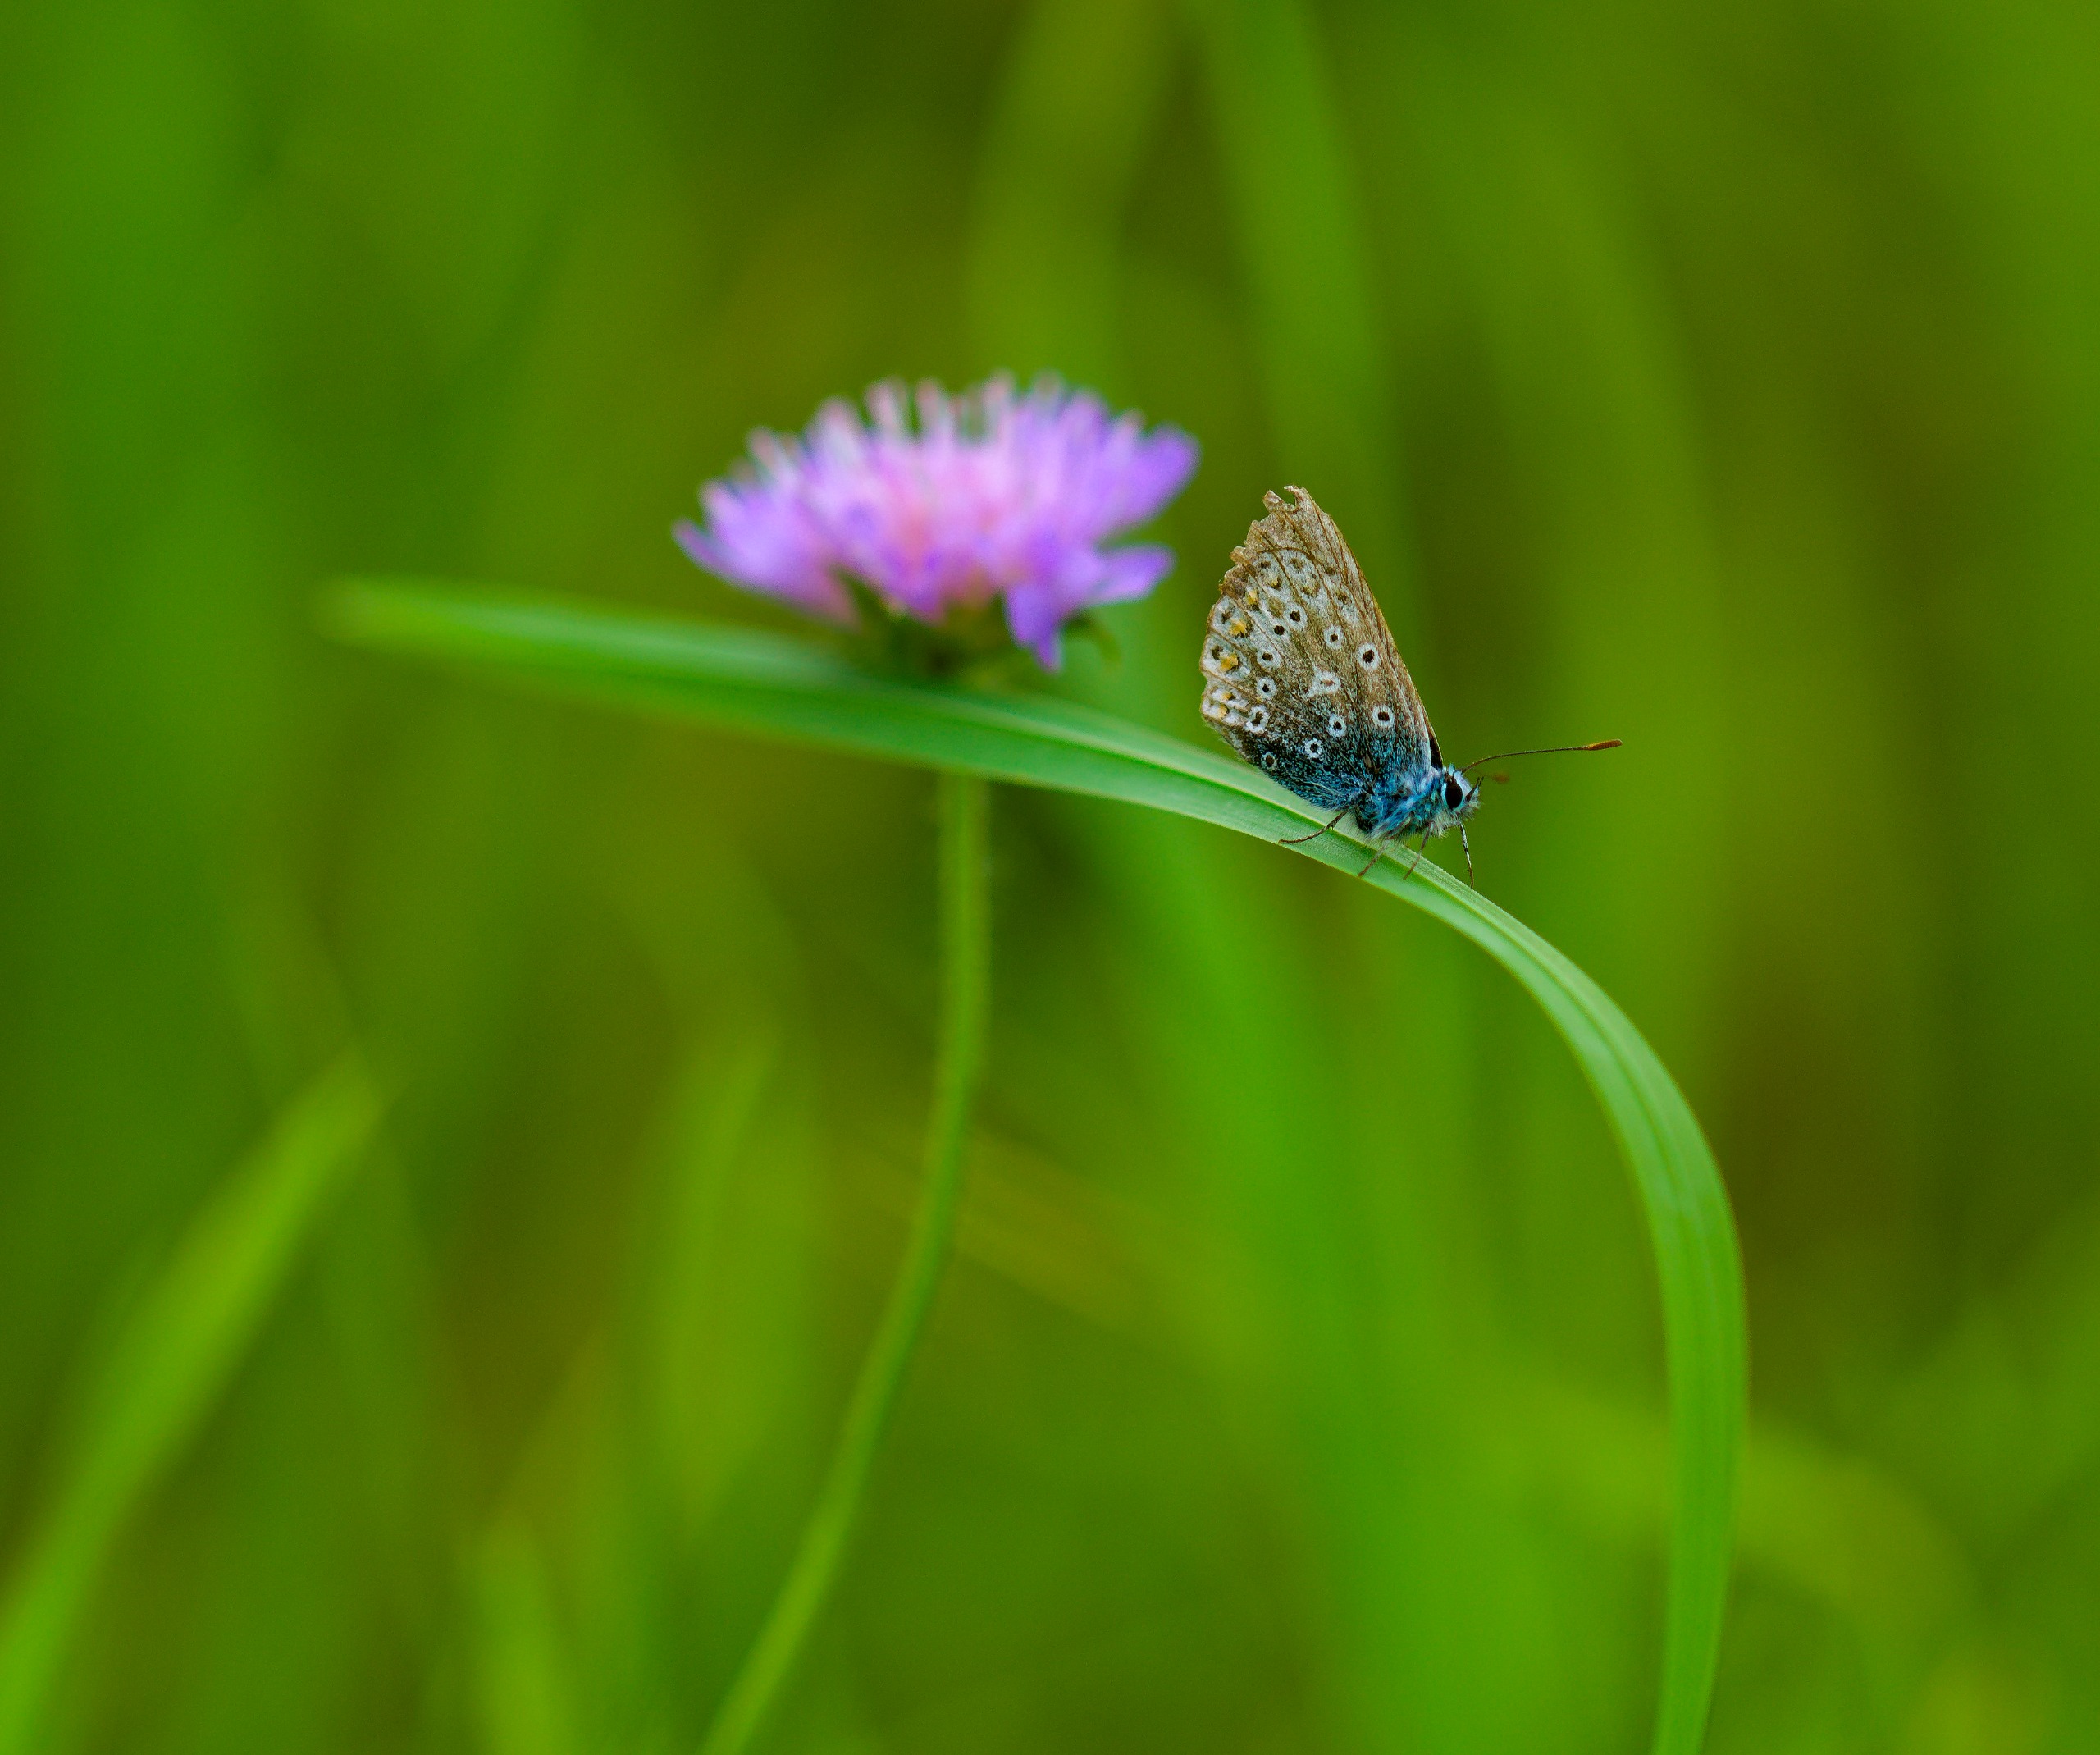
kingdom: Animalia
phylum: Arthropoda
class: Insecta
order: Lepidoptera
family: Lycaenidae
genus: Polyommatus
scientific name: Polyommatus icarus
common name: Almindelig blåfugl
